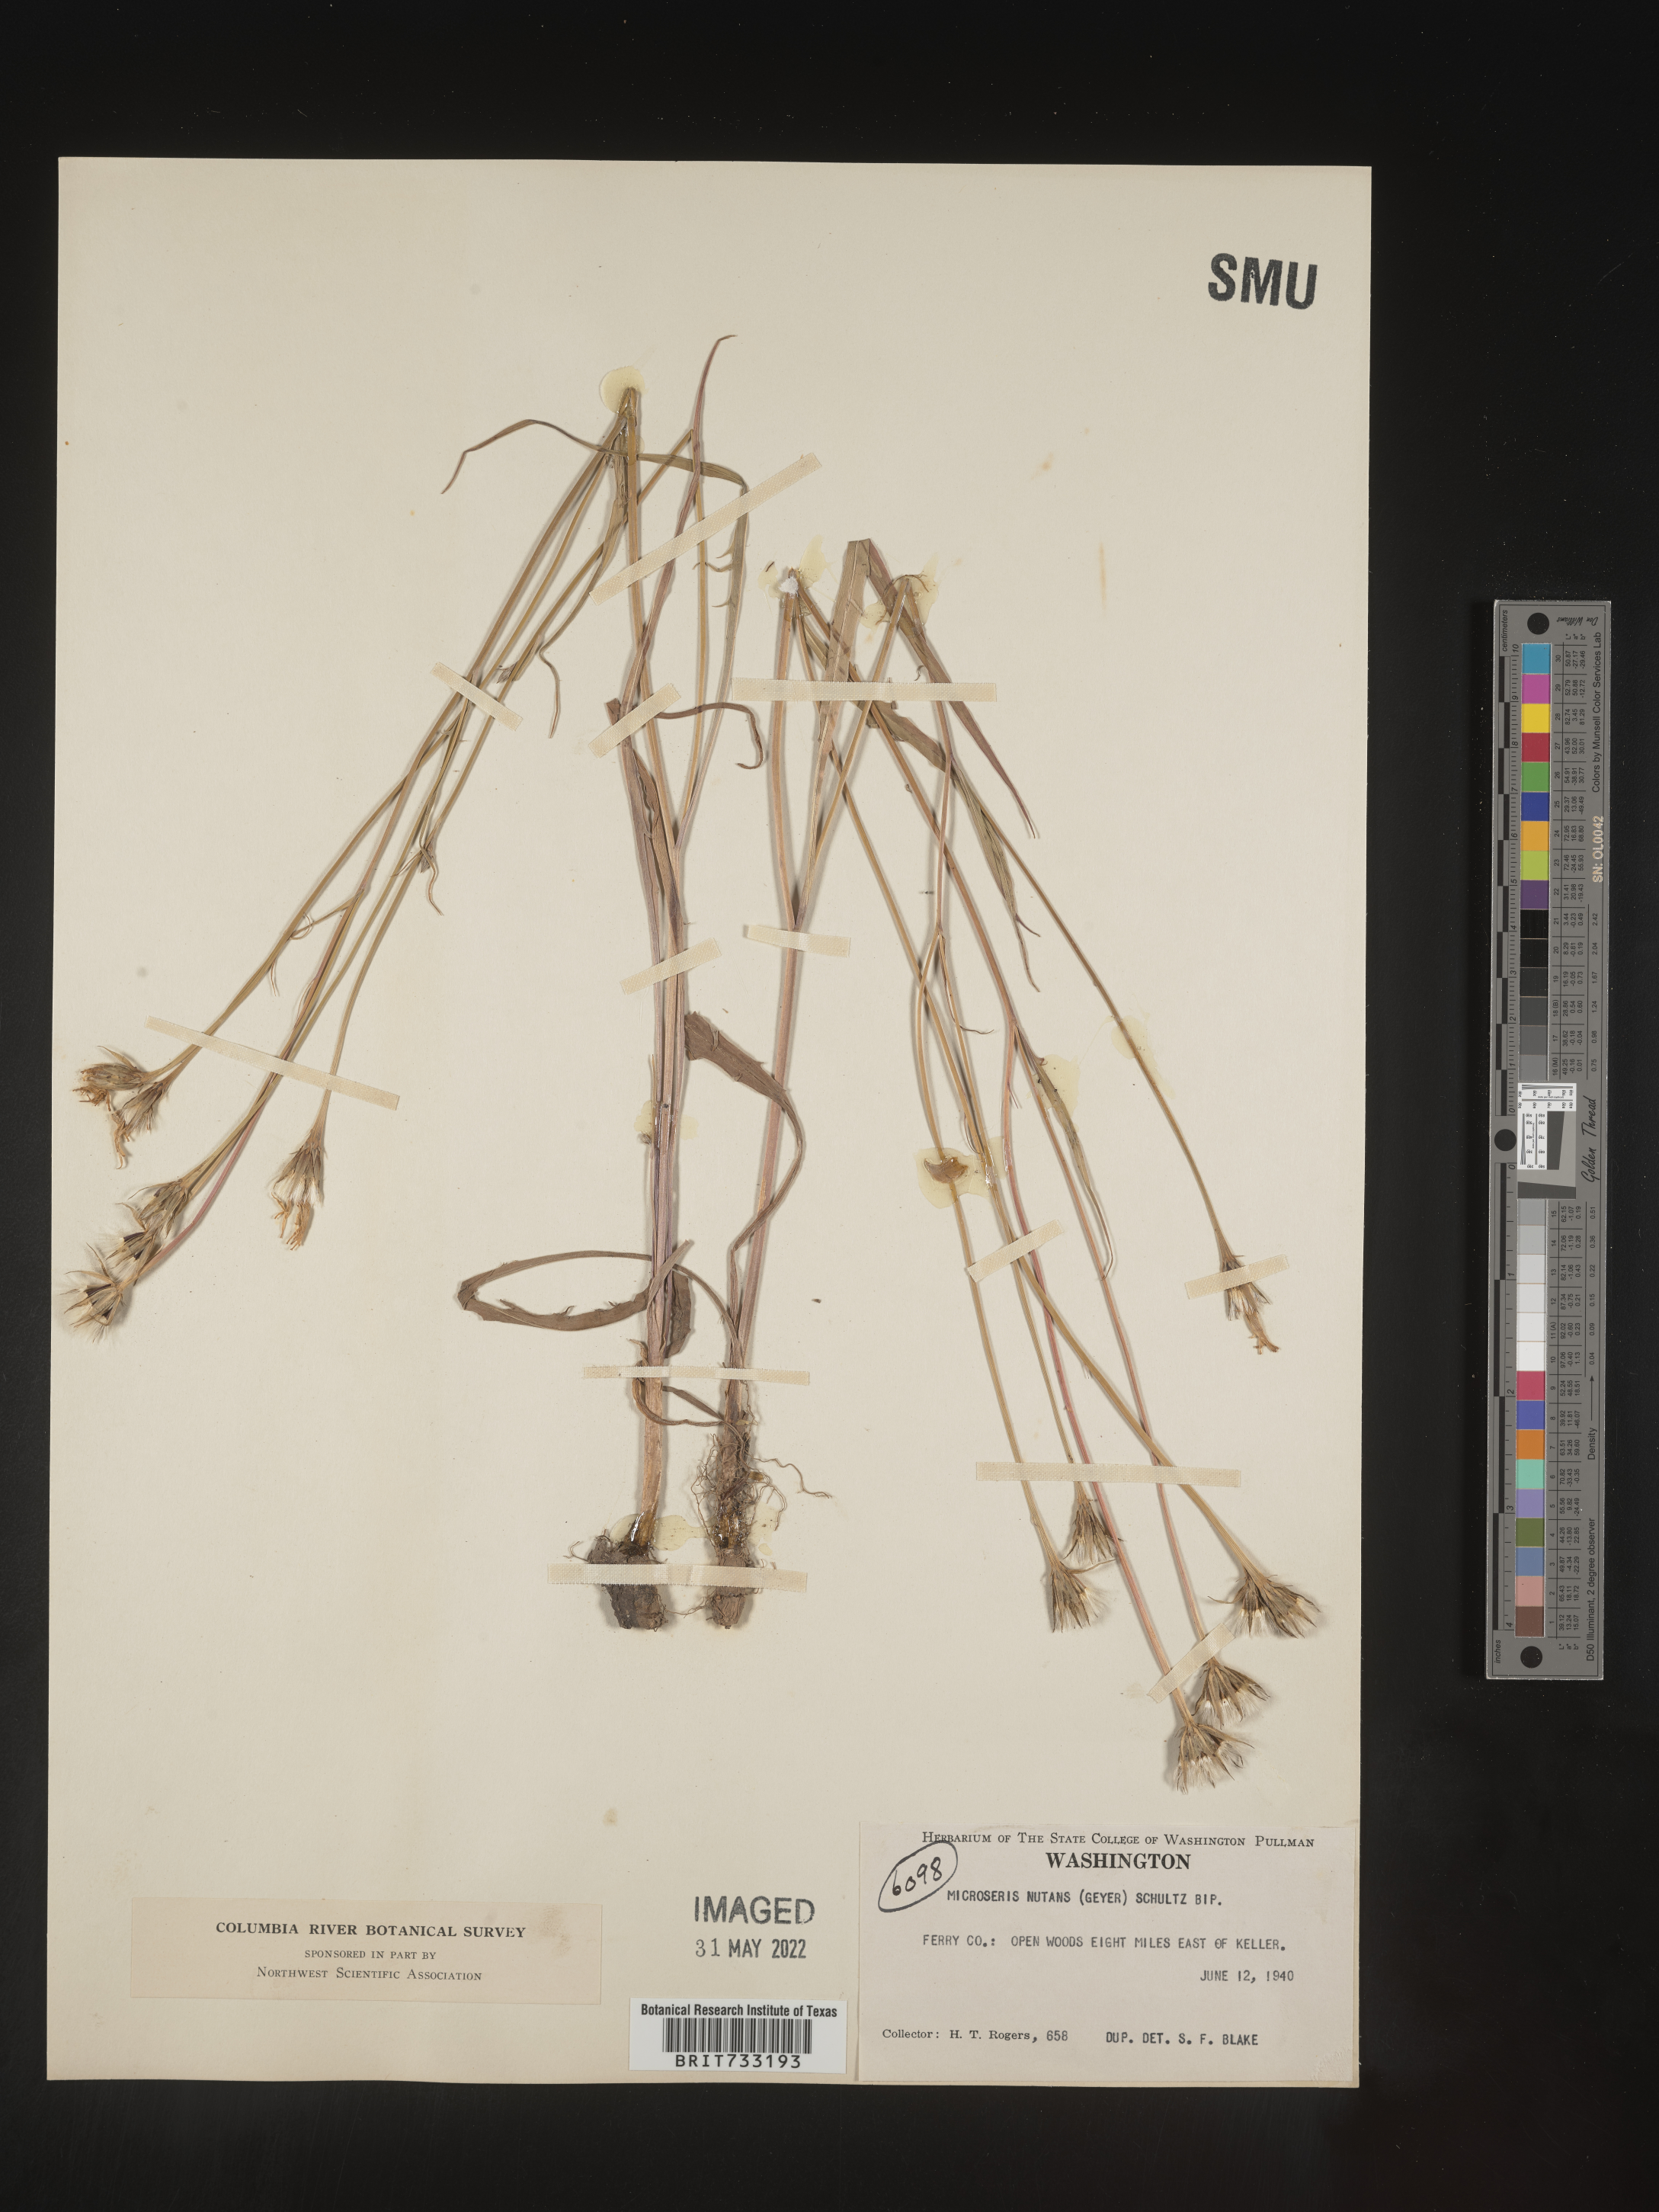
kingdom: Plantae
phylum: Tracheophyta
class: Magnoliopsida
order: Asterales
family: Asteraceae
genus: Microseris
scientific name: Microseris nutans
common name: Nodding microseris
